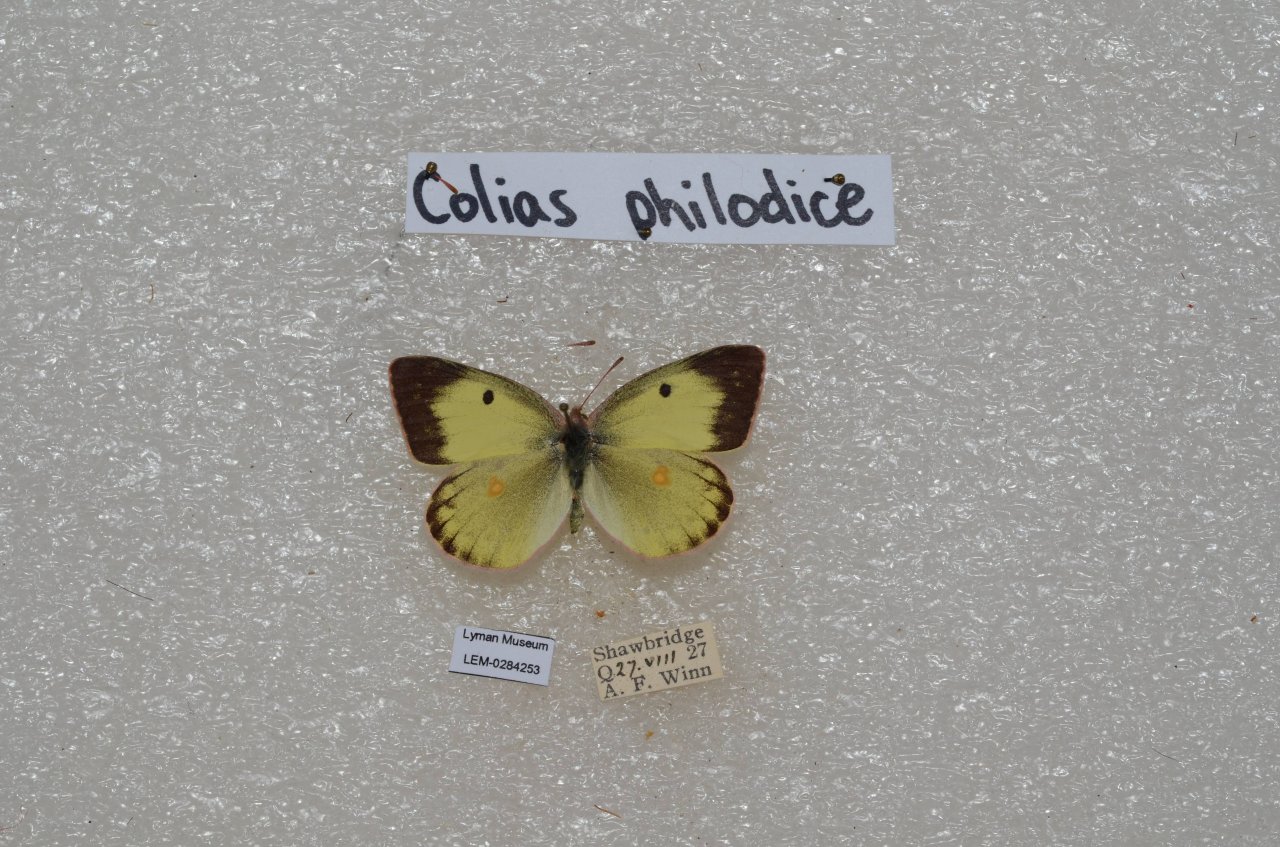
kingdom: Animalia
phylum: Arthropoda
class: Insecta
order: Lepidoptera
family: Pieridae
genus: Colias
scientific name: Colias philodice
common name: Clouded Sulphur
